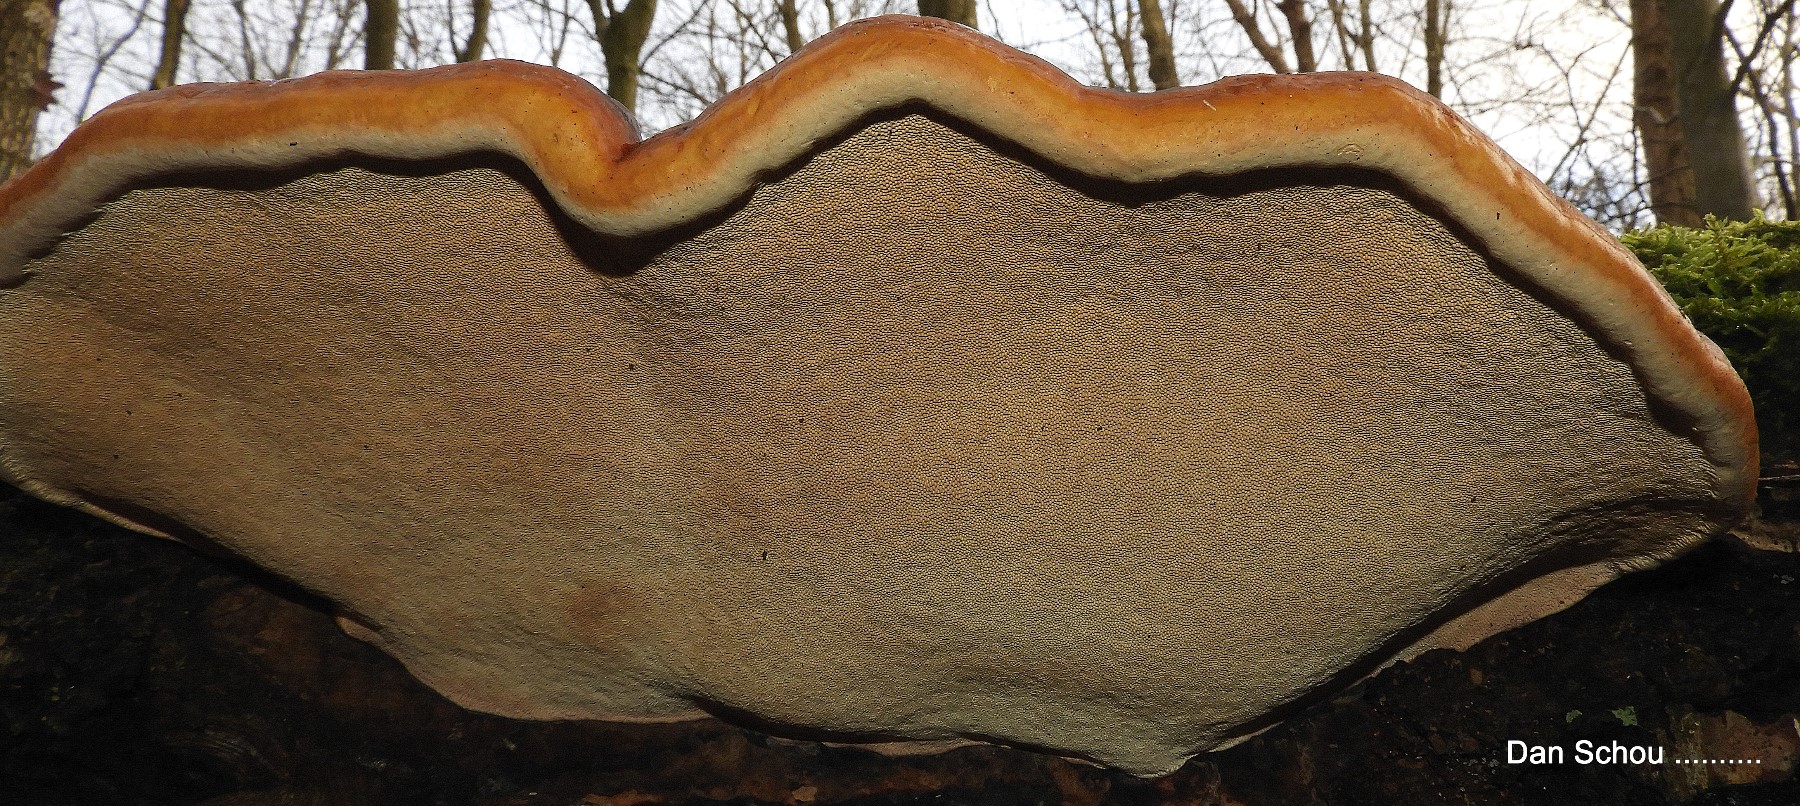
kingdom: Fungi
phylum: Basidiomycota
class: Agaricomycetes
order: Polyporales
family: Fomitopsidaceae
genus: Fomitopsis
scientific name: Fomitopsis pinicola
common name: randbæltet hovporesvamp
